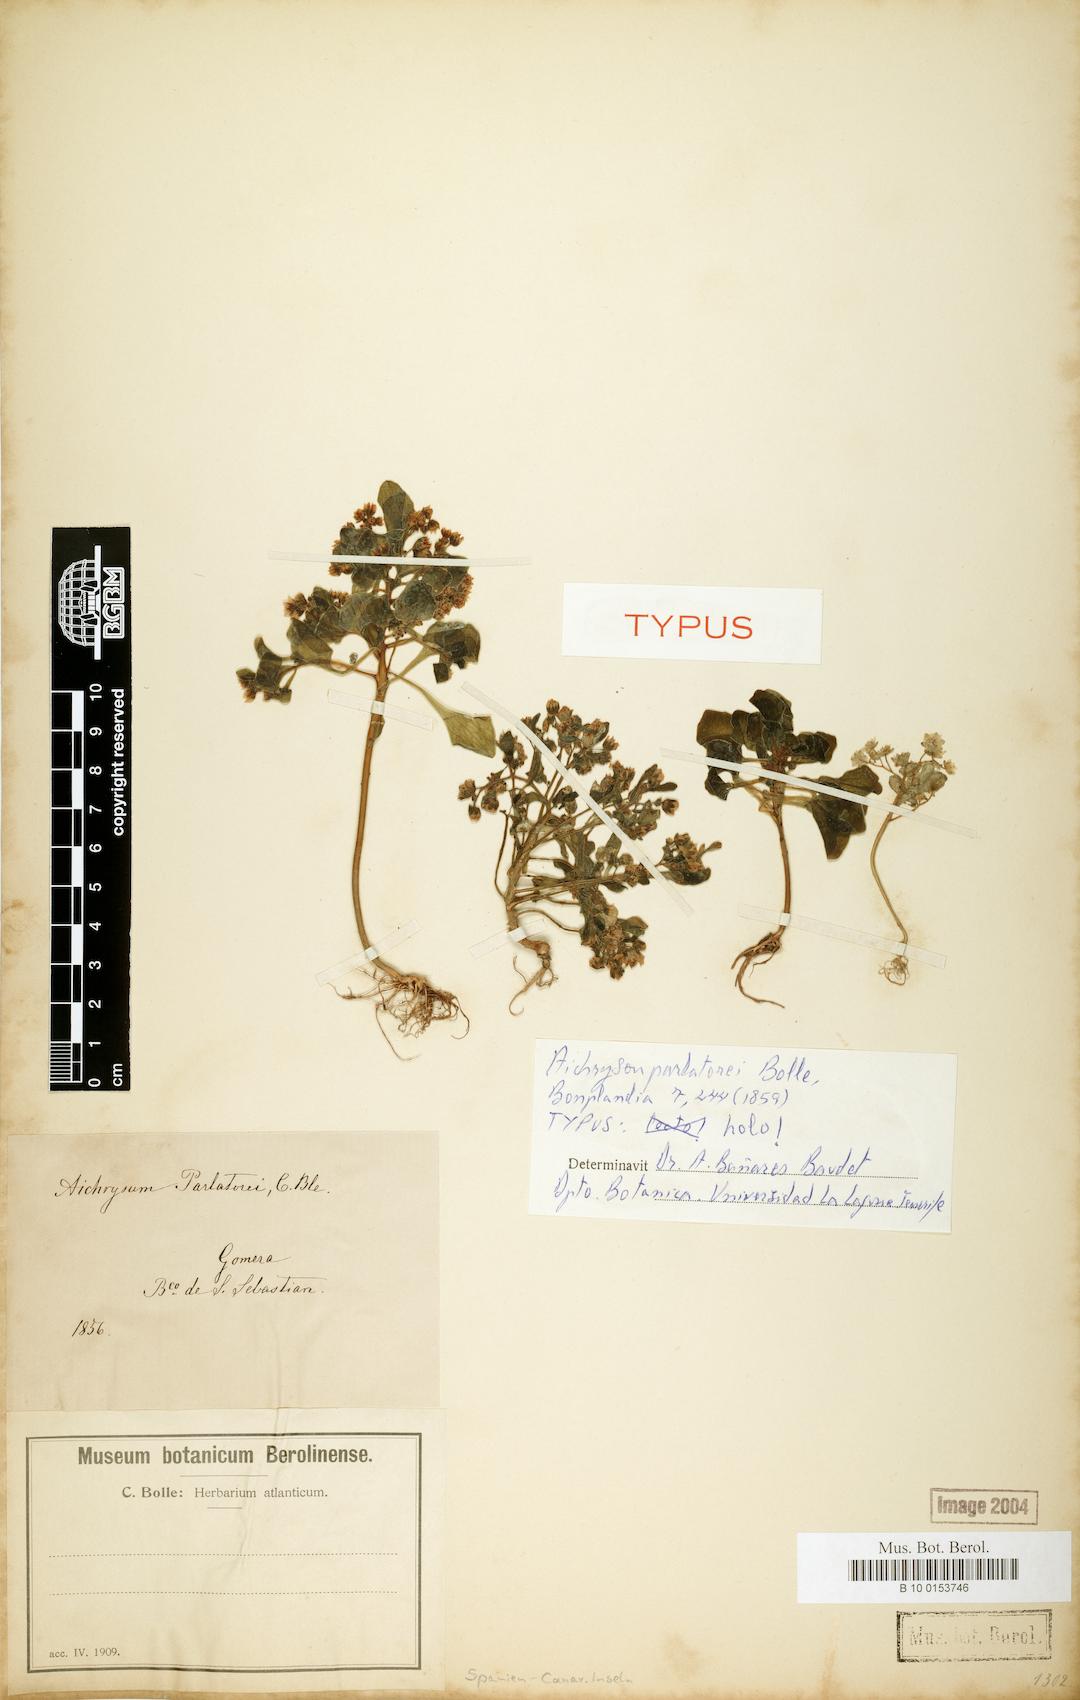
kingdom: Plantae
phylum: Tracheophyta
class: Magnoliopsida
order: Saxifragales
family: Crassulaceae
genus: Aichryson
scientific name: Aichryson parlatorei
